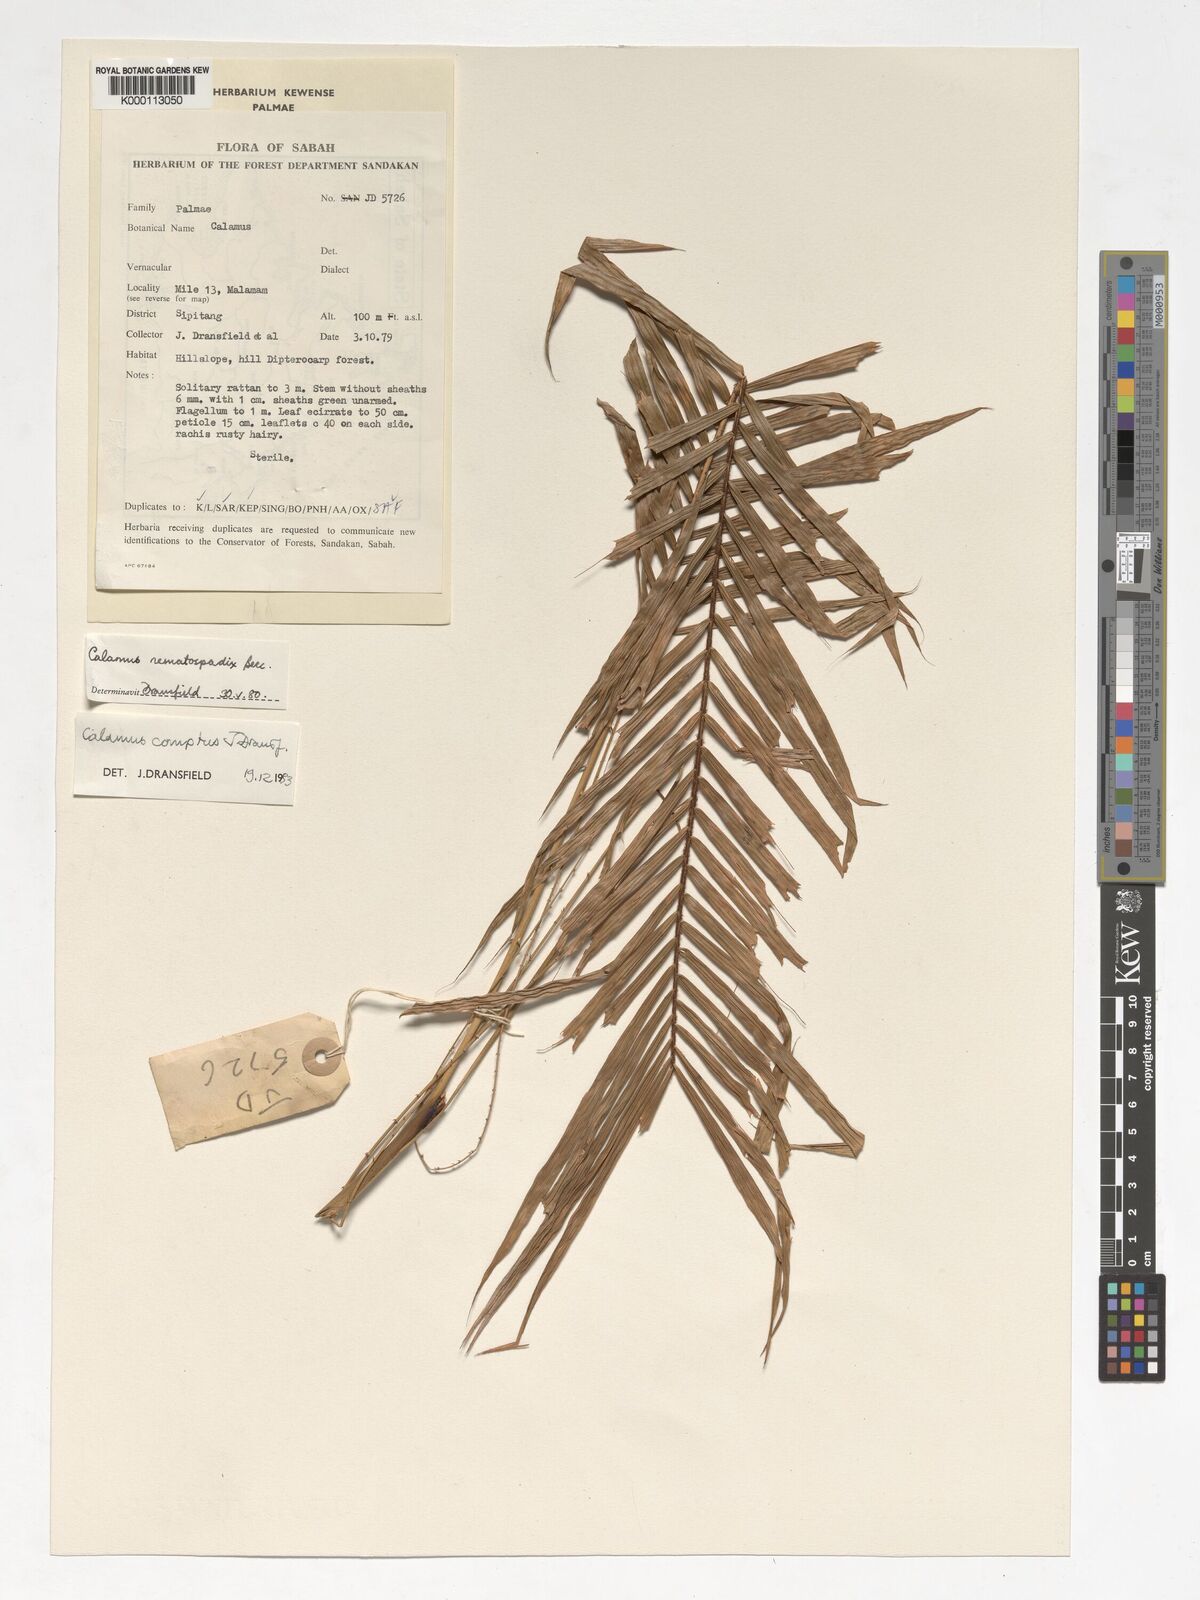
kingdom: Plantae
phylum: Tracheophyta
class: Liliopsida
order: Arecales
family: Arecaceae
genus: Calamus
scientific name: Calamus comptus
